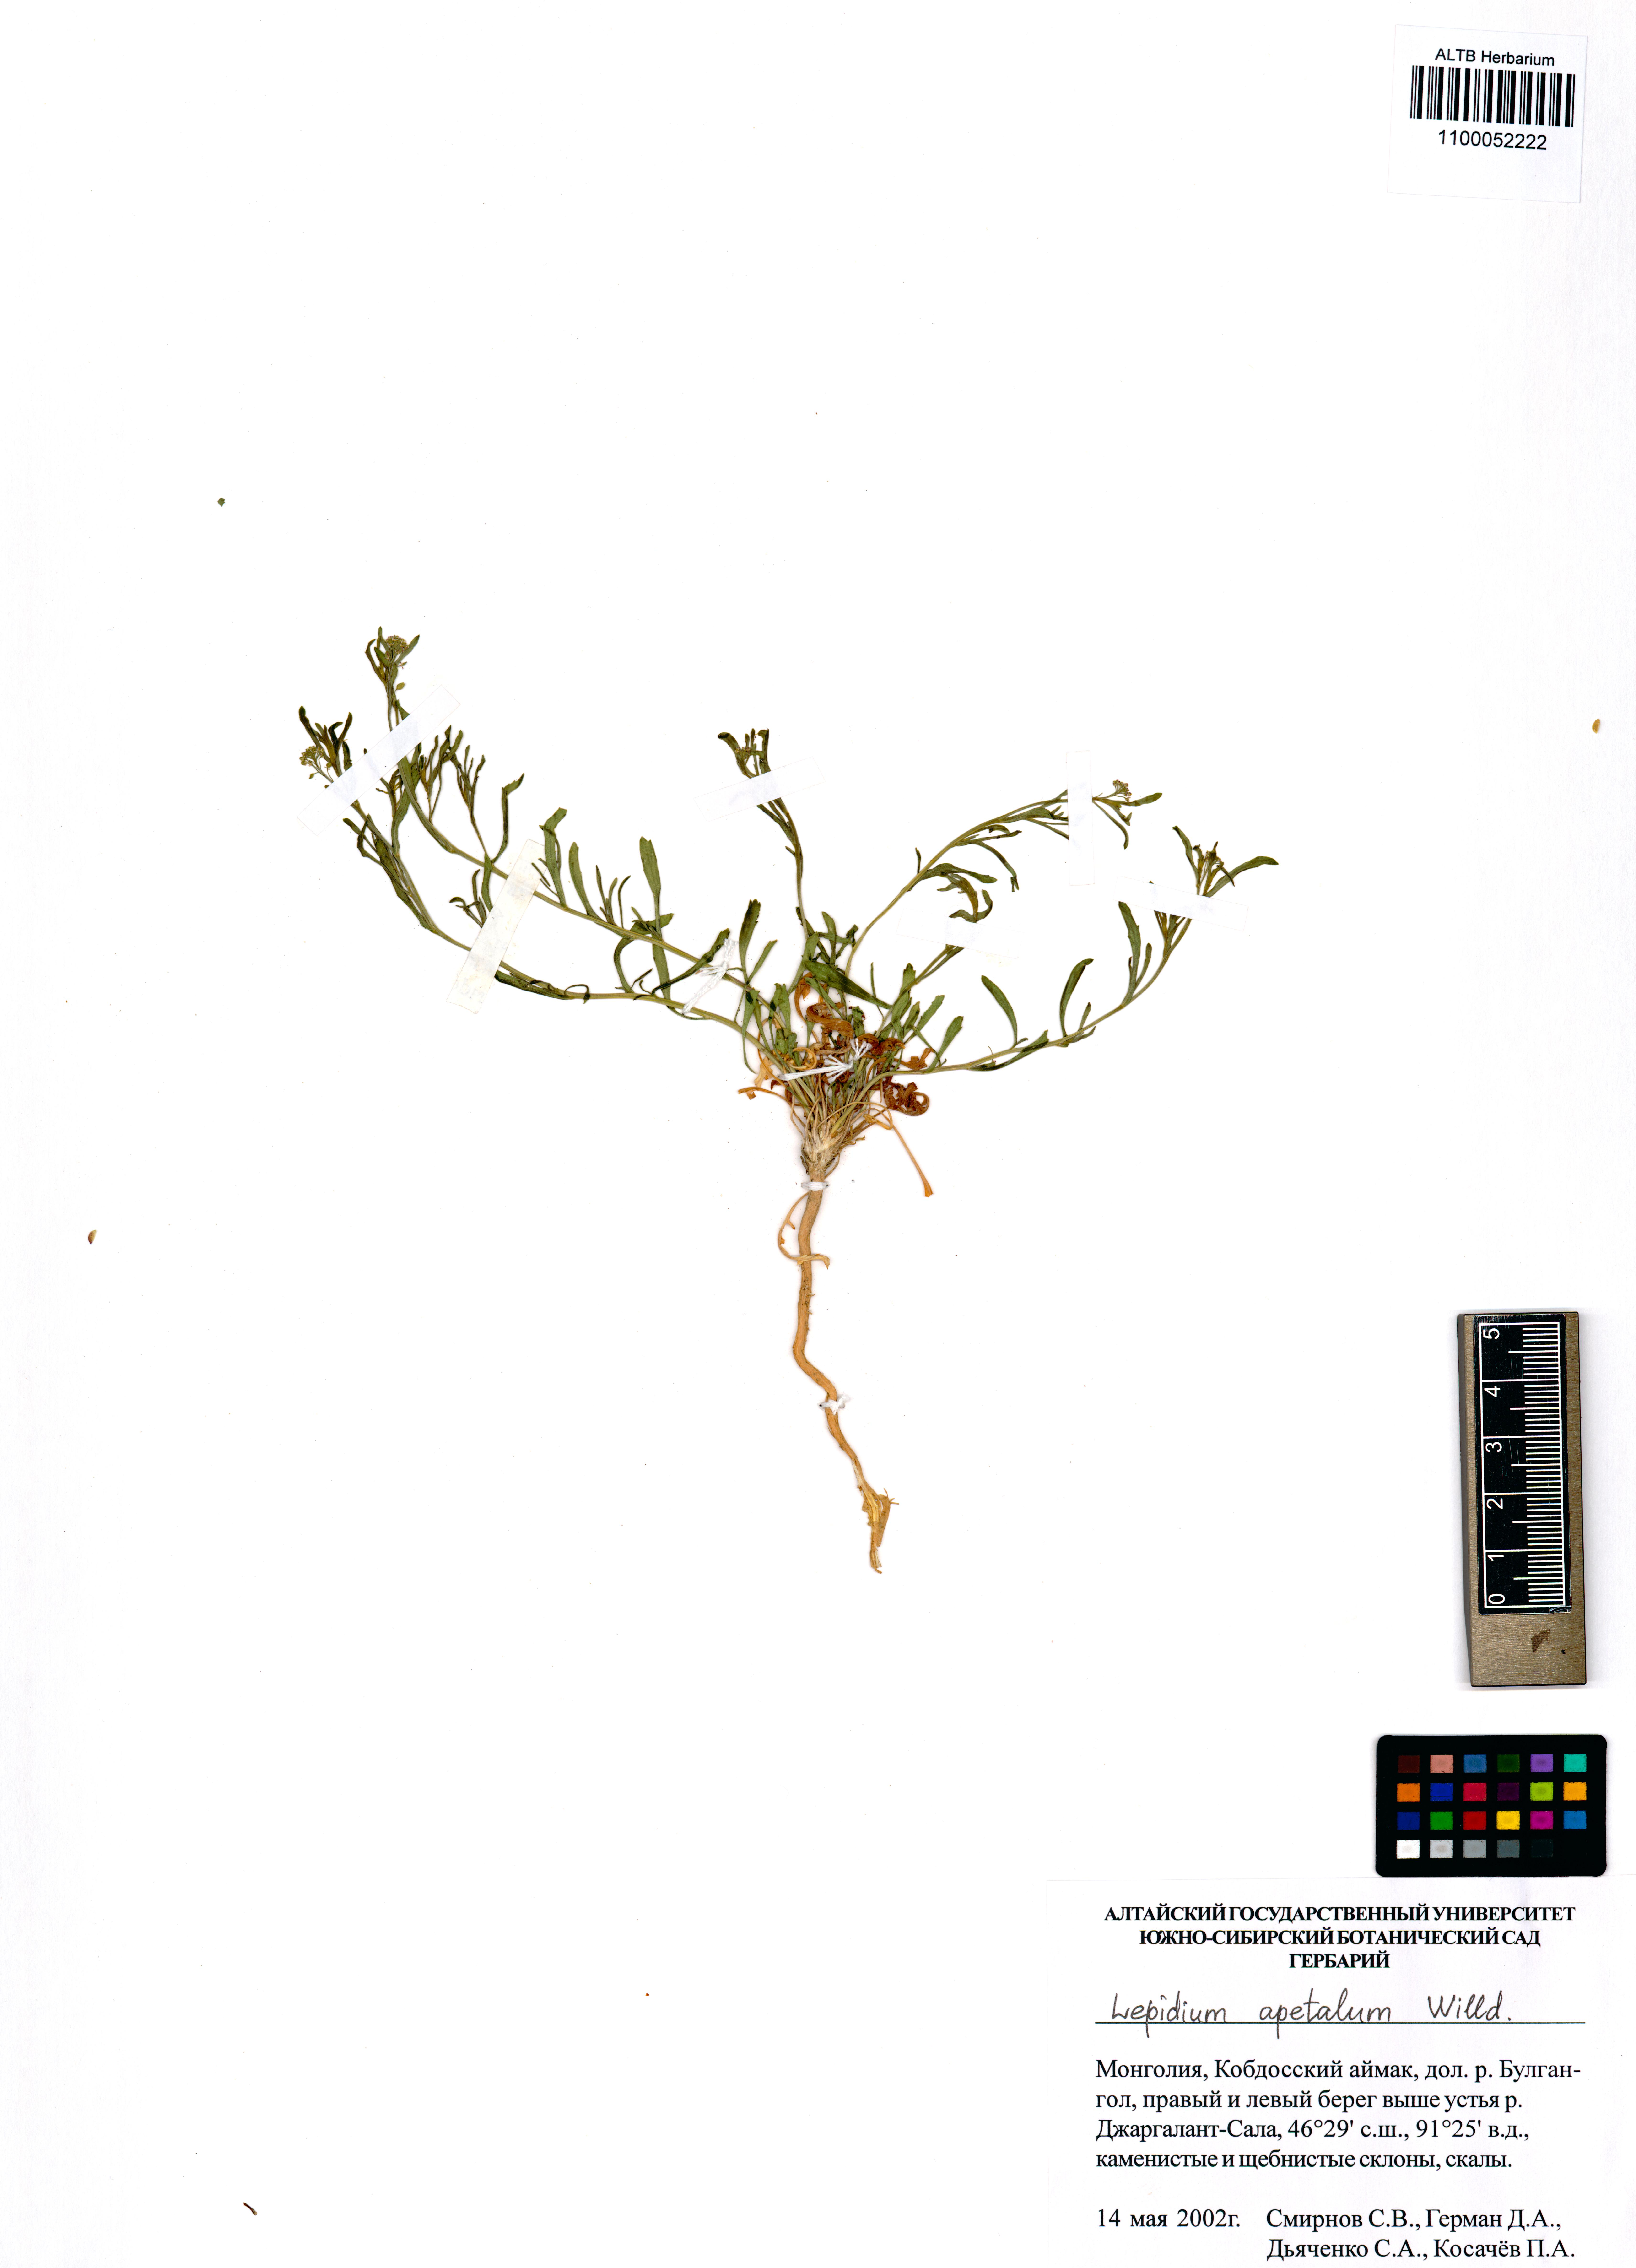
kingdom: Plantae
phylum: Tracheophyta
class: Magnoliopsida
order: Brassicales
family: Brassicaceae
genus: Lepidium
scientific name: Lepidium apetalum
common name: Pepperweed
